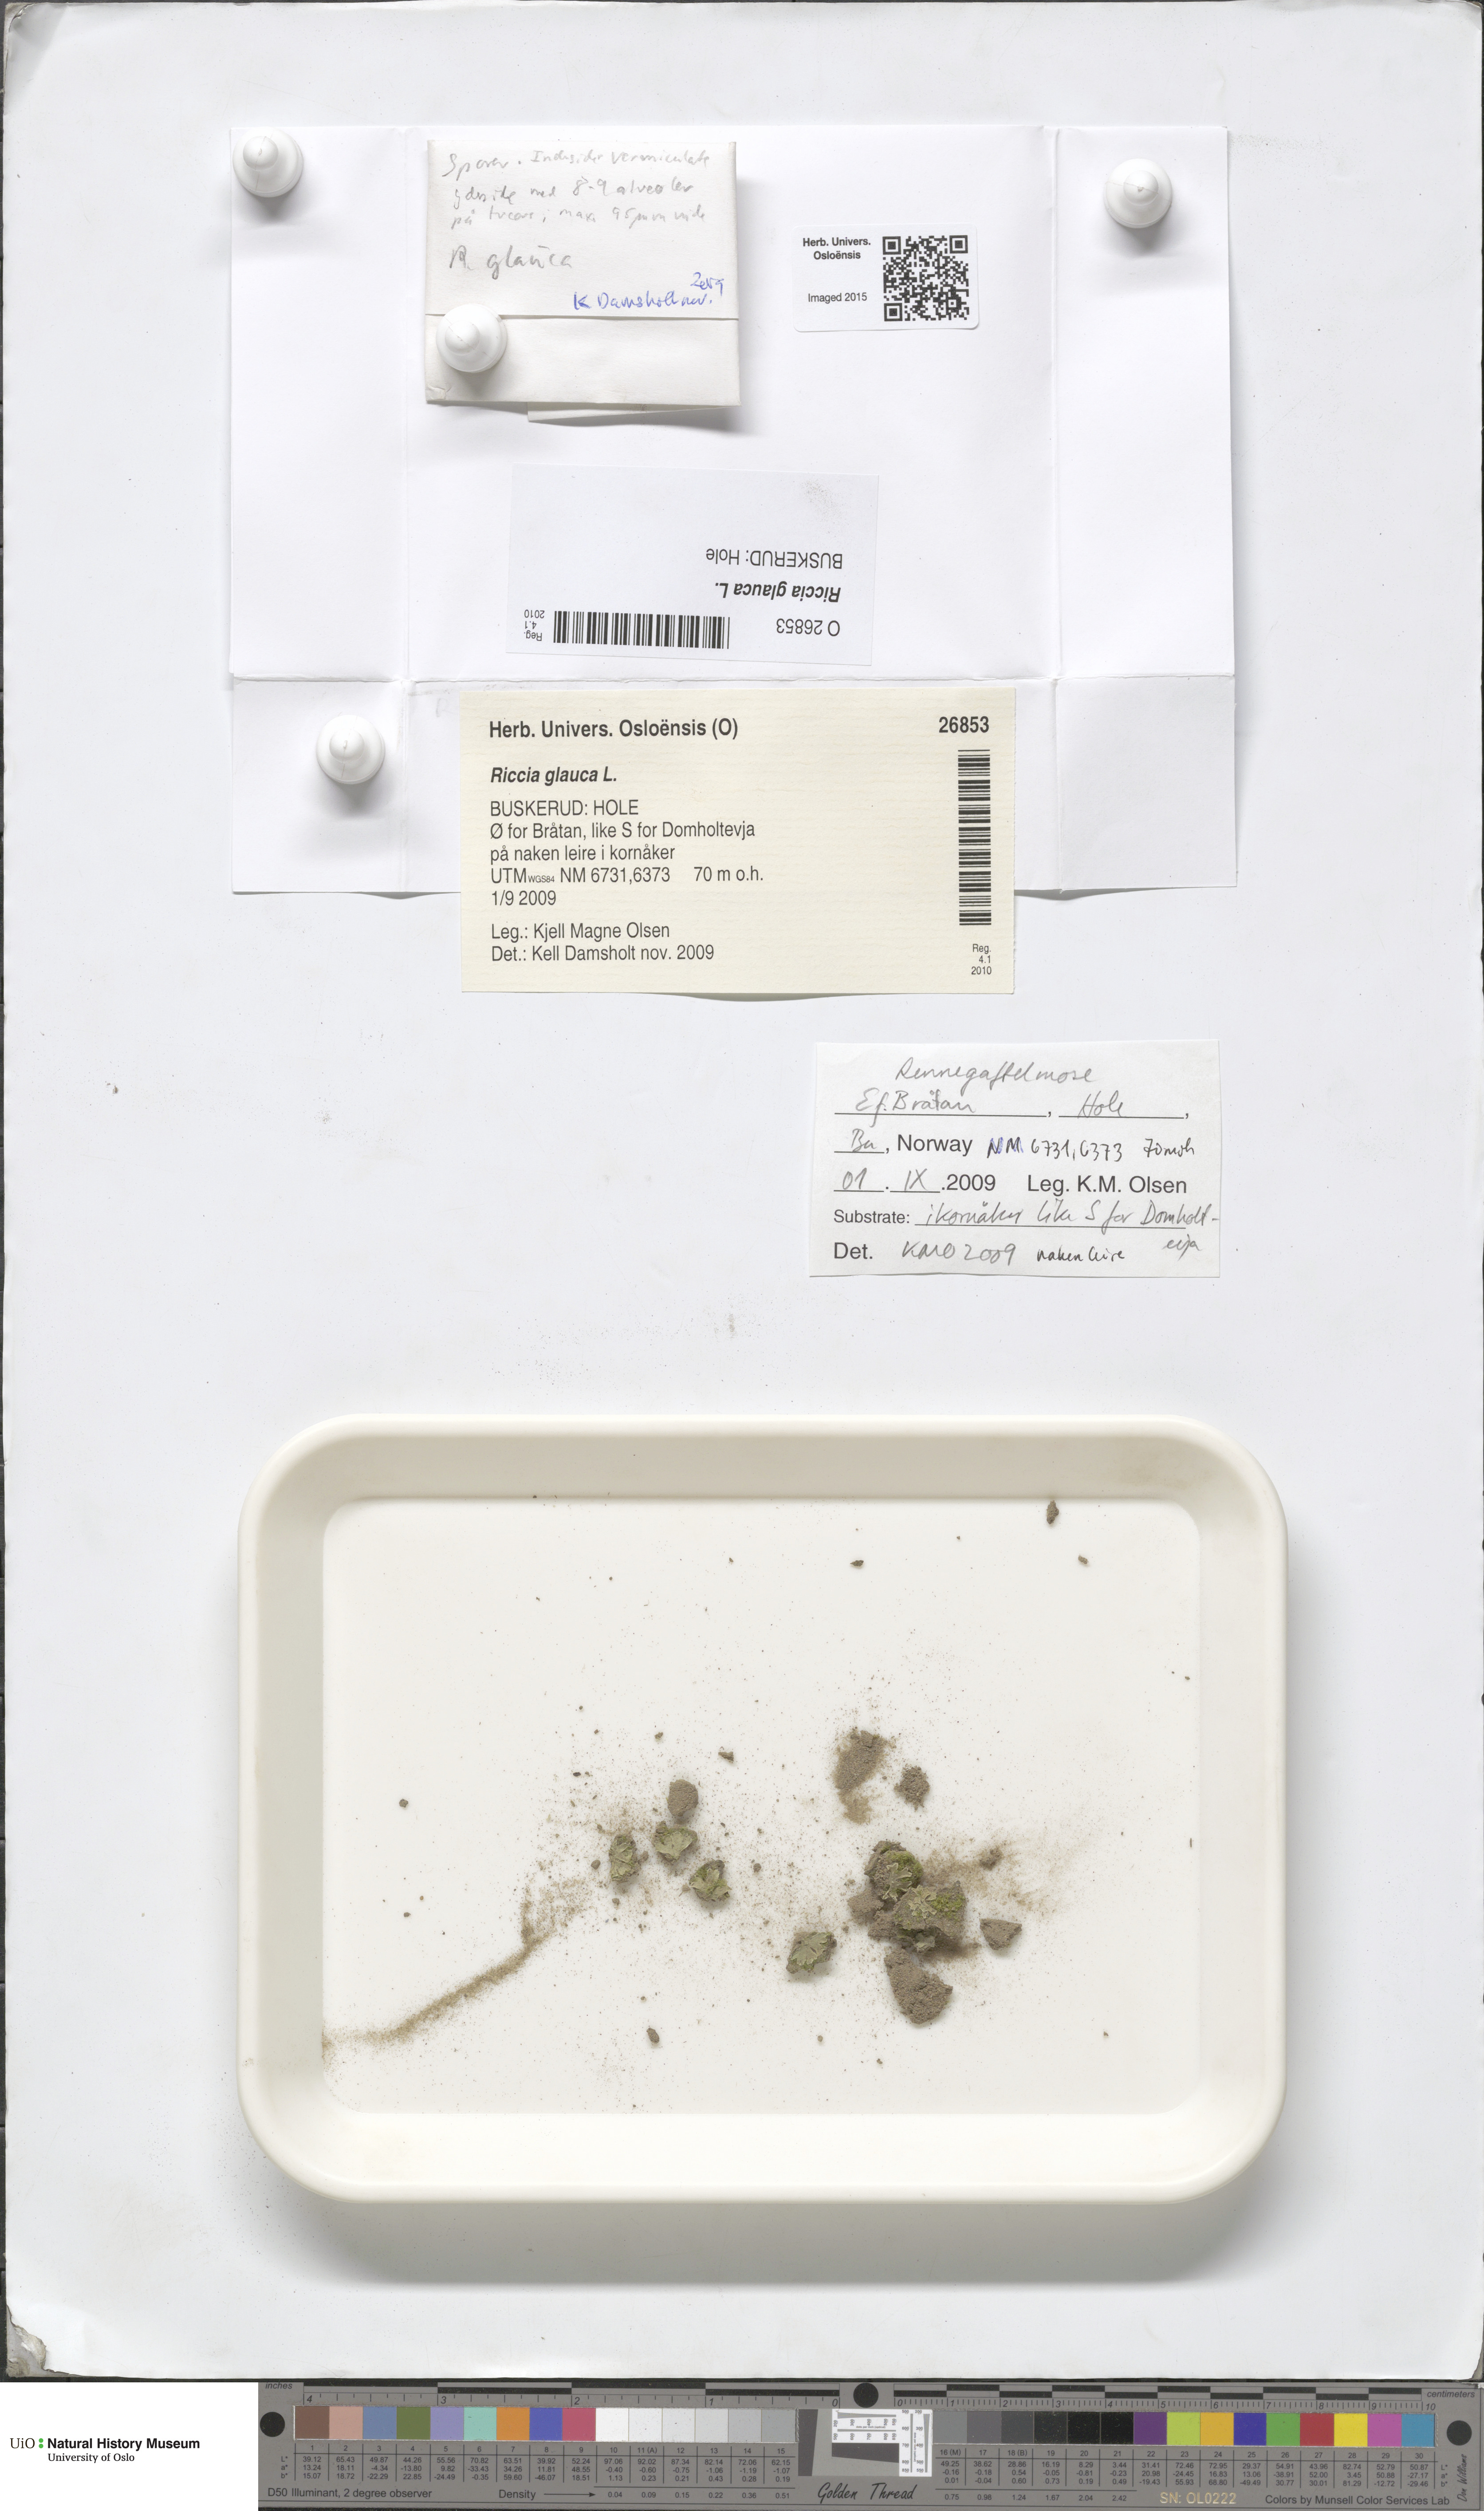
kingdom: Plantae
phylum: Marchantiophyta
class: Marchantiopsida
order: Marchantiales
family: Ricciaceae
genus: Riccia
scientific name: Riccia glauca
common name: Glaucous crystalwort
